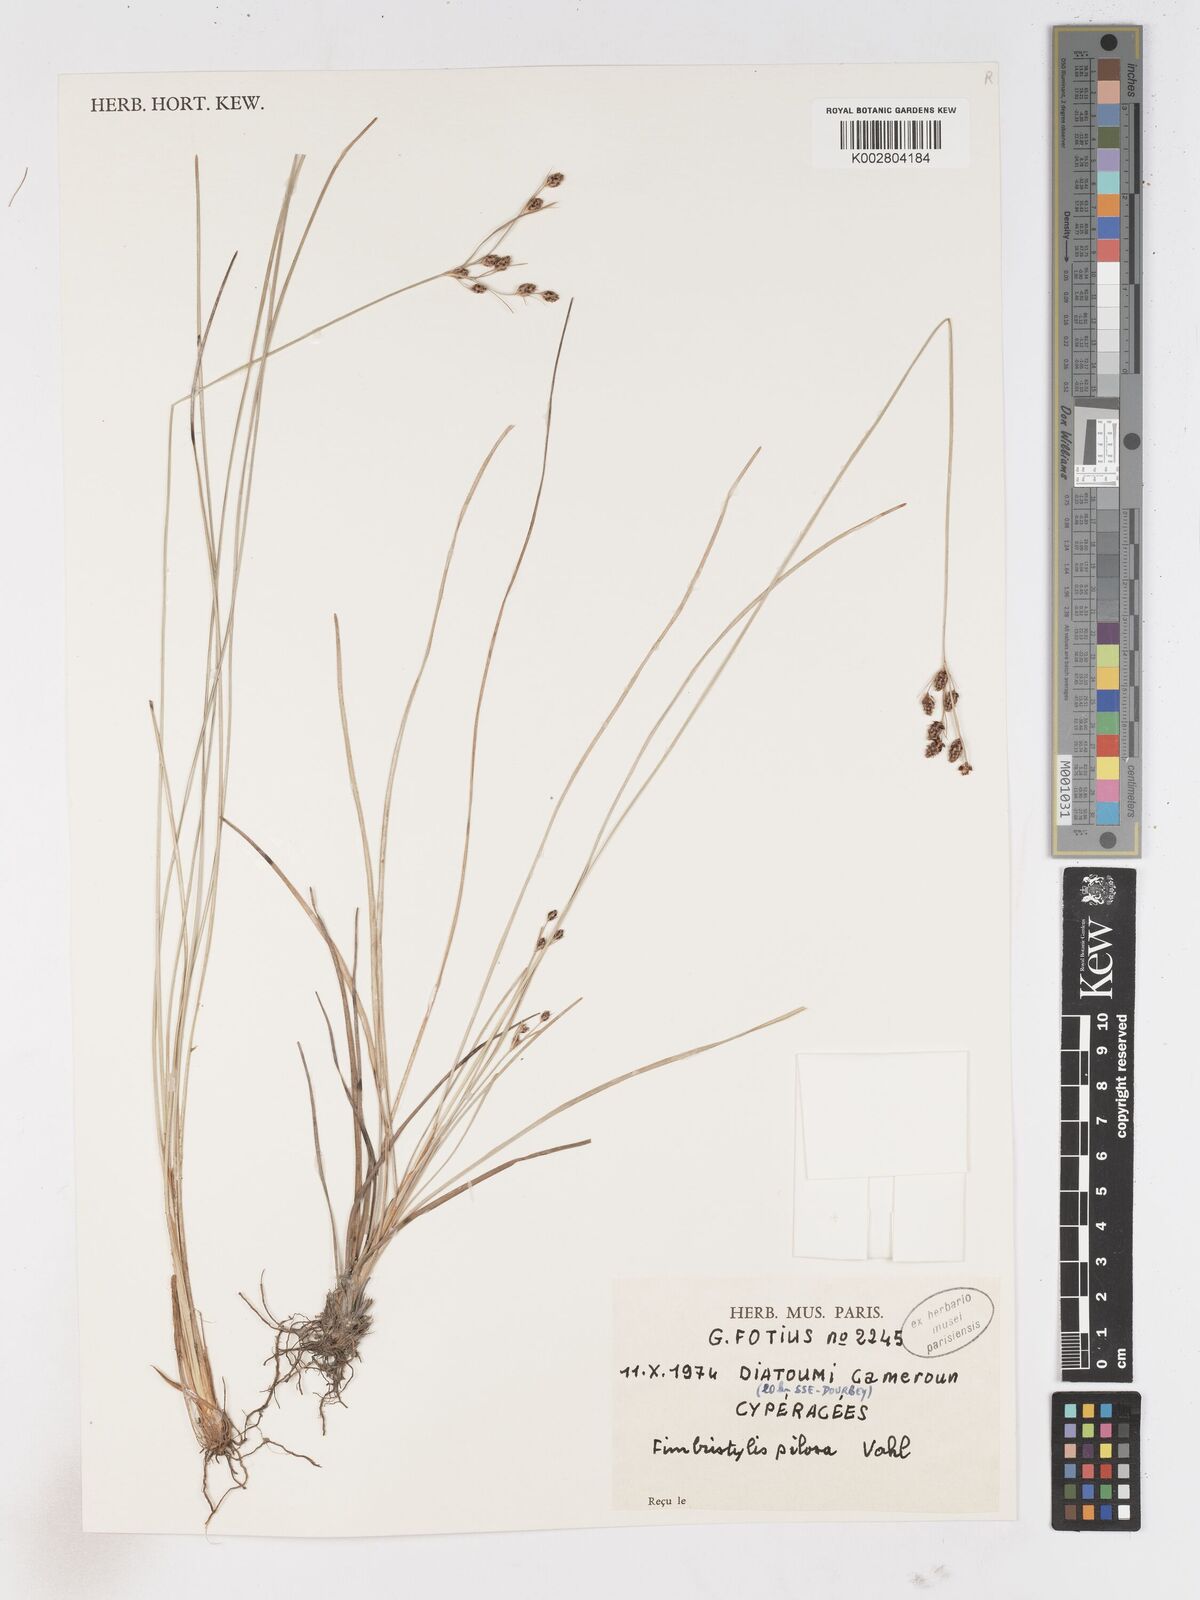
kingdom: Plantae
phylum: Tracheophyta
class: Liliopsida
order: Poales
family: Cyperaceae
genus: Fimbristylis
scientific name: Fimbristylis pilosa
